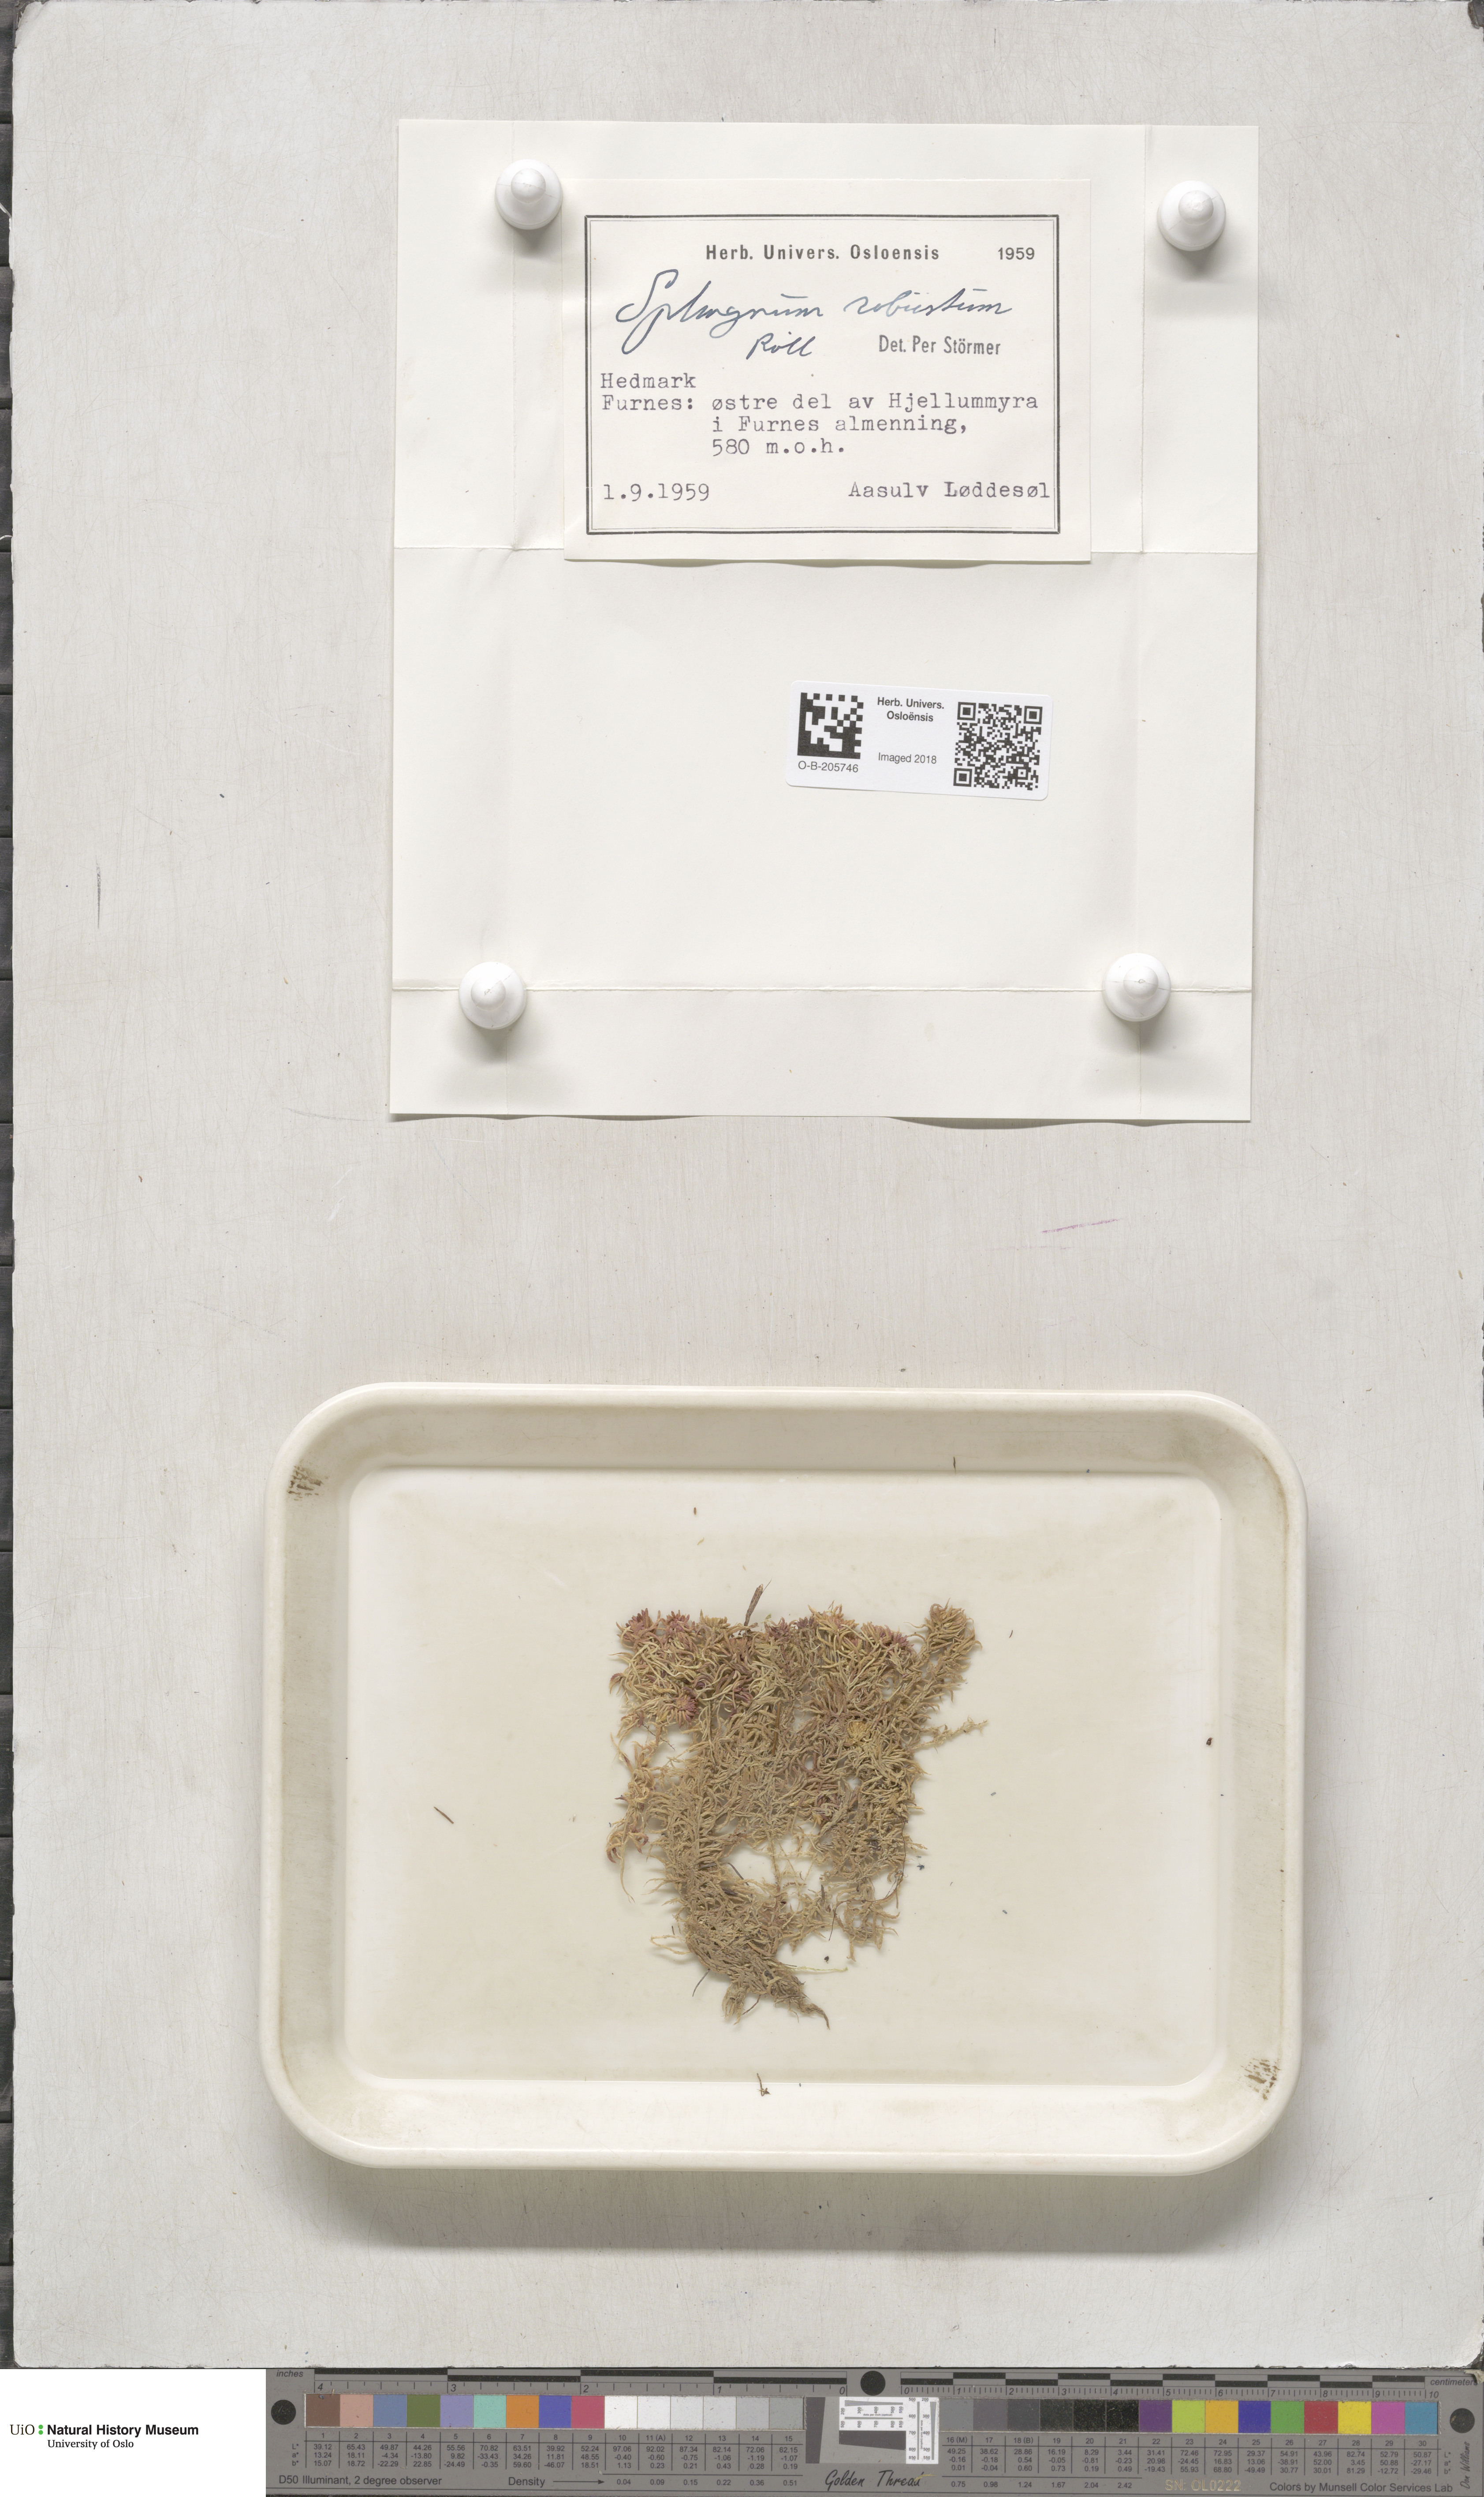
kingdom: Plantae
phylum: Bryophyta
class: Sphagnopsida
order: Sphagnales
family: Sphagnaceae
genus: Sphagnum
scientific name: Sphagnum russowii
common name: Russow's peat moss
